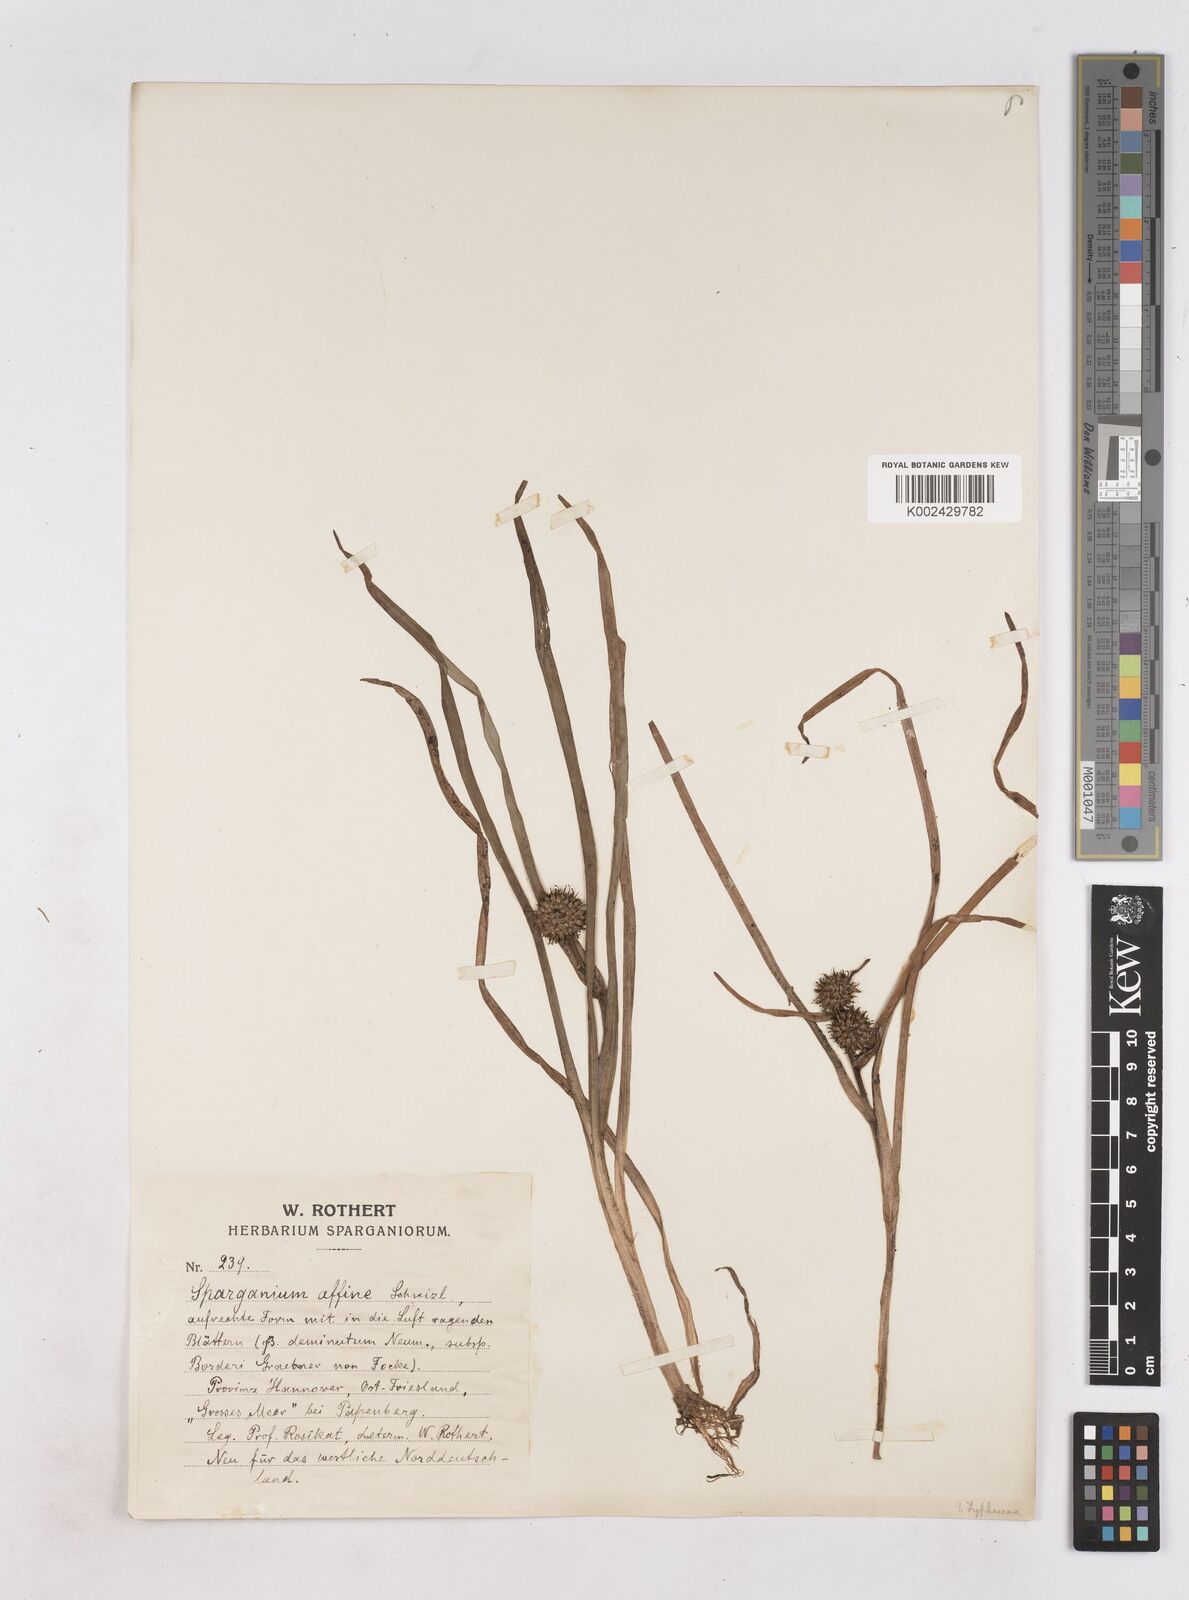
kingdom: Plantae
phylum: Tracheophyta
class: Liliopsida
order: Poales
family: Typhaceae
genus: Sparganium
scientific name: Sparganium angustifolium
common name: Floating bur-reed
